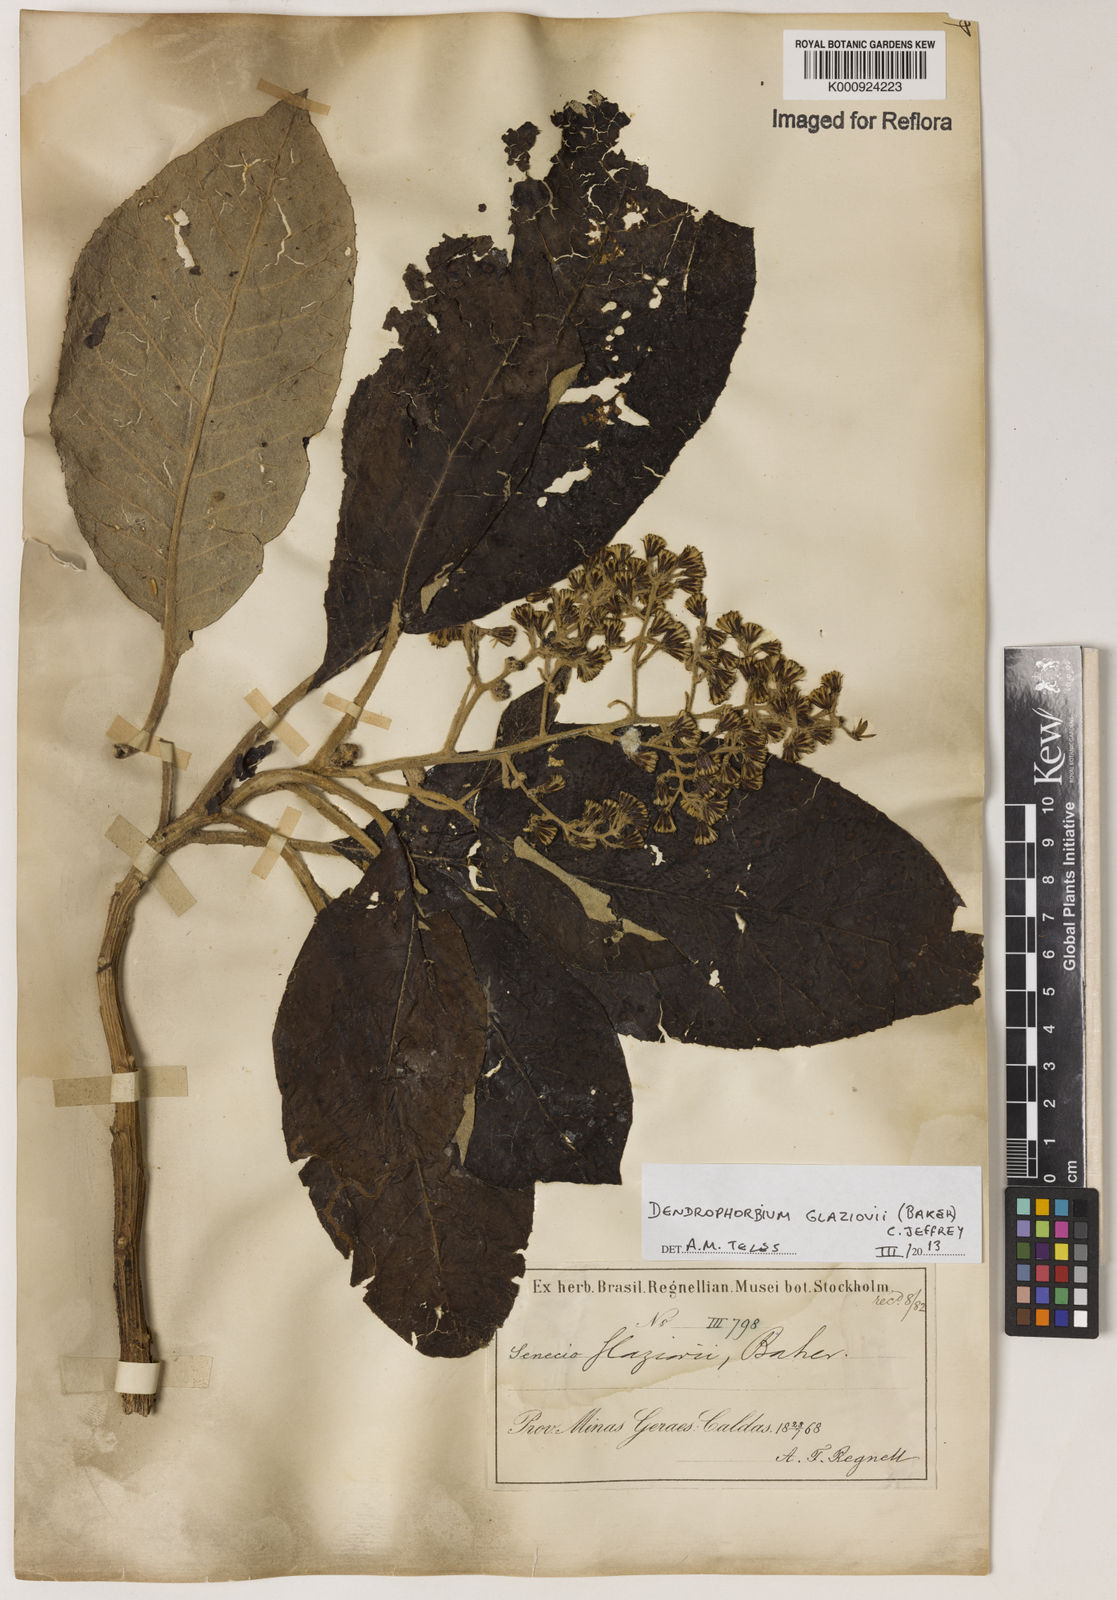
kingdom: Plantae
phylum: Tracheophyta
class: Magnoliopsida
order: Asterales
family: Asteraceae
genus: Dendrophorbium
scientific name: Dendrophorbium glaziovii
